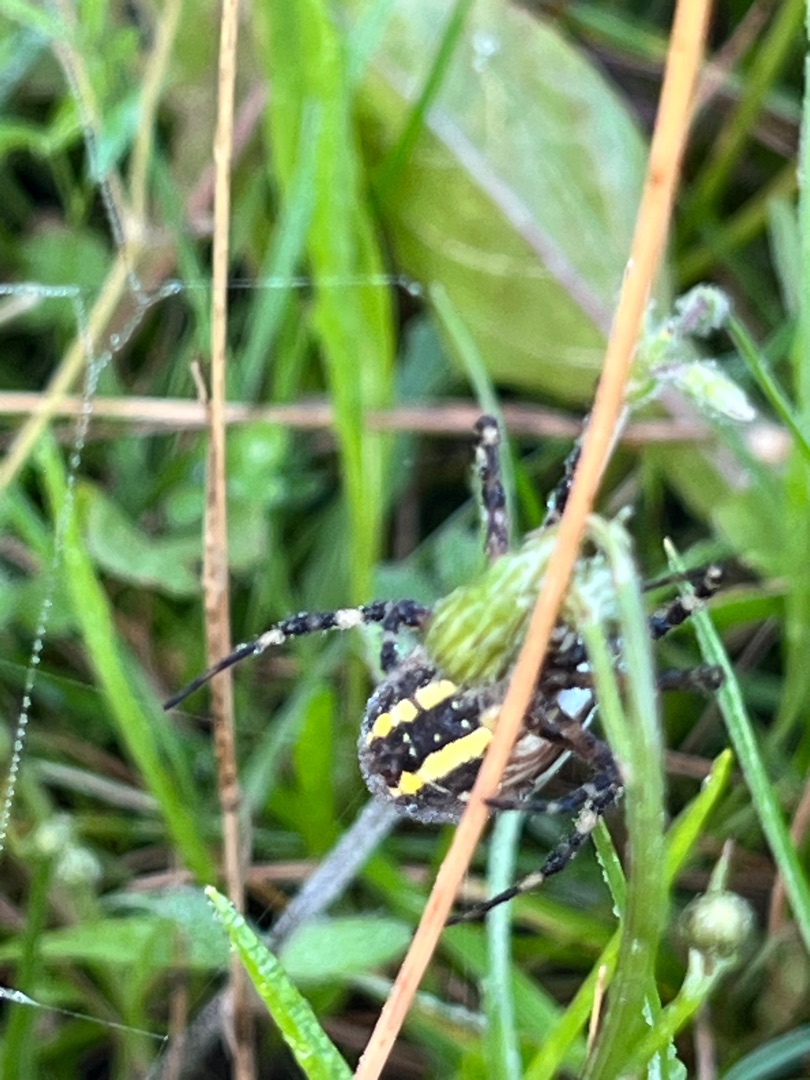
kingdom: Animalia
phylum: Arthropoda
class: Arachnida
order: Araneae
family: Araneidae
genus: Argiope
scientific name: Argiope bruennichi
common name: Hvepseedderkop
